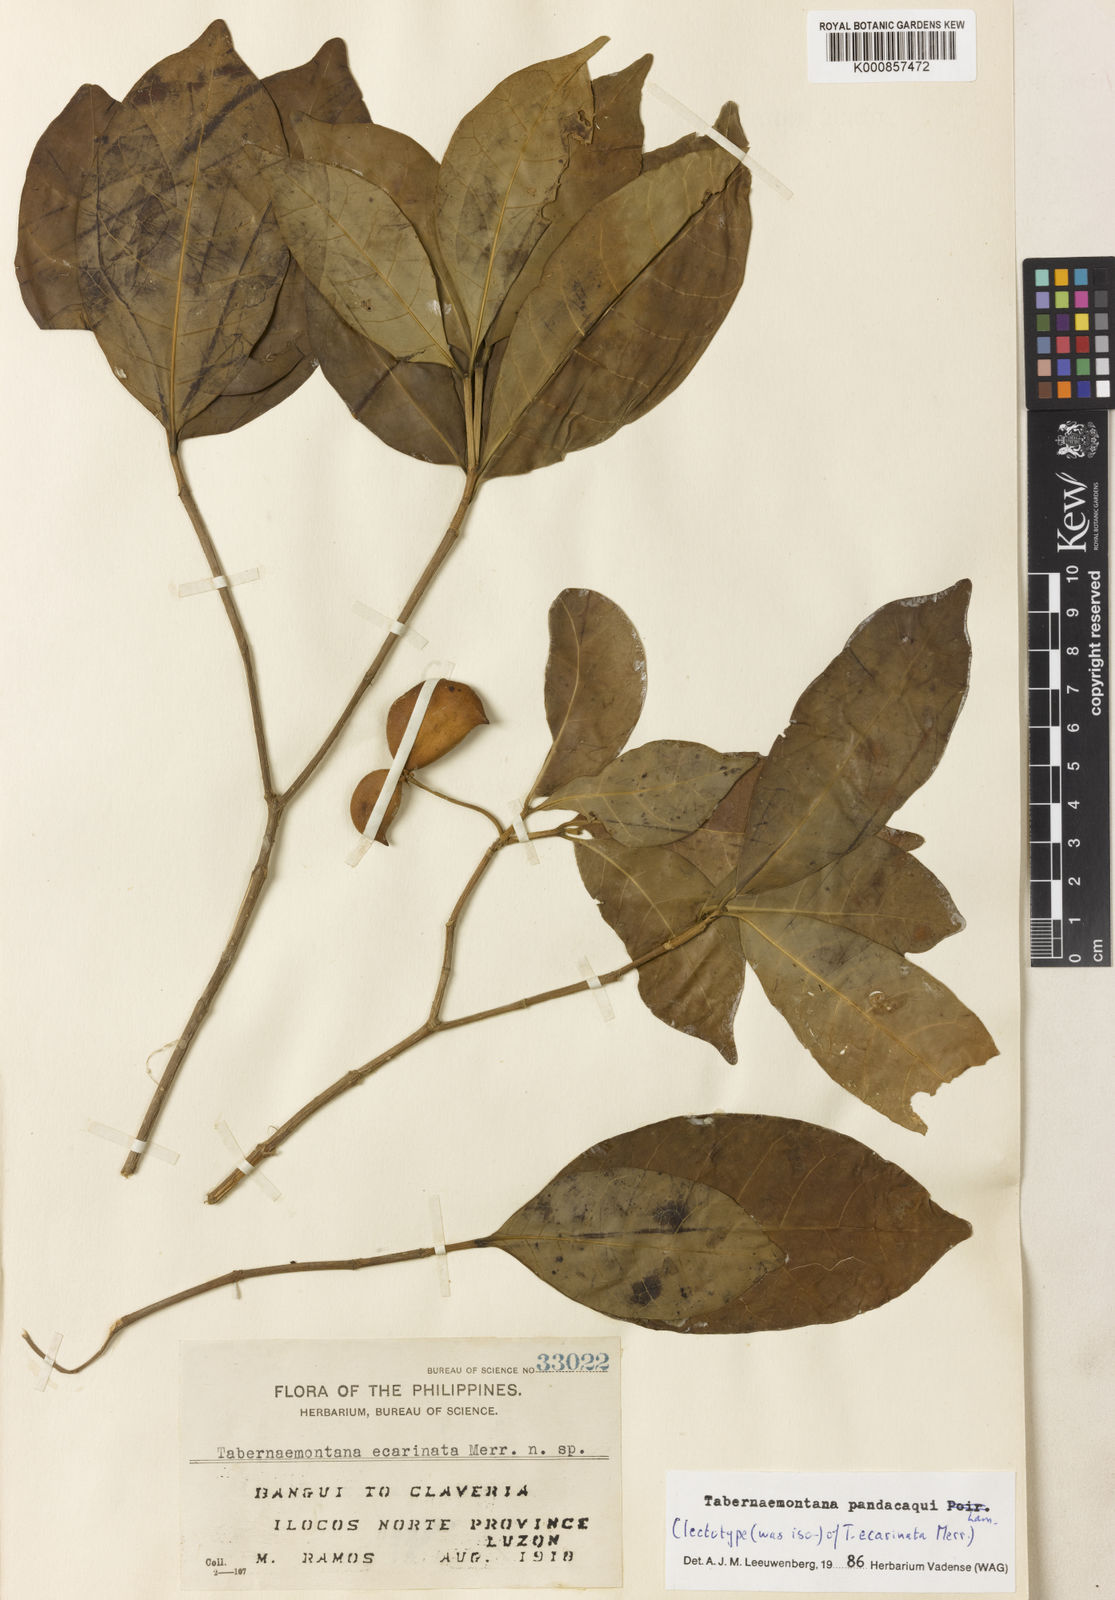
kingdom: Plantae
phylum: Tracheophyta
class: Magnoliopsida
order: Gentianales
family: Apocynaceae
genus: Tabernaemontana
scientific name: Tabernaemontana
